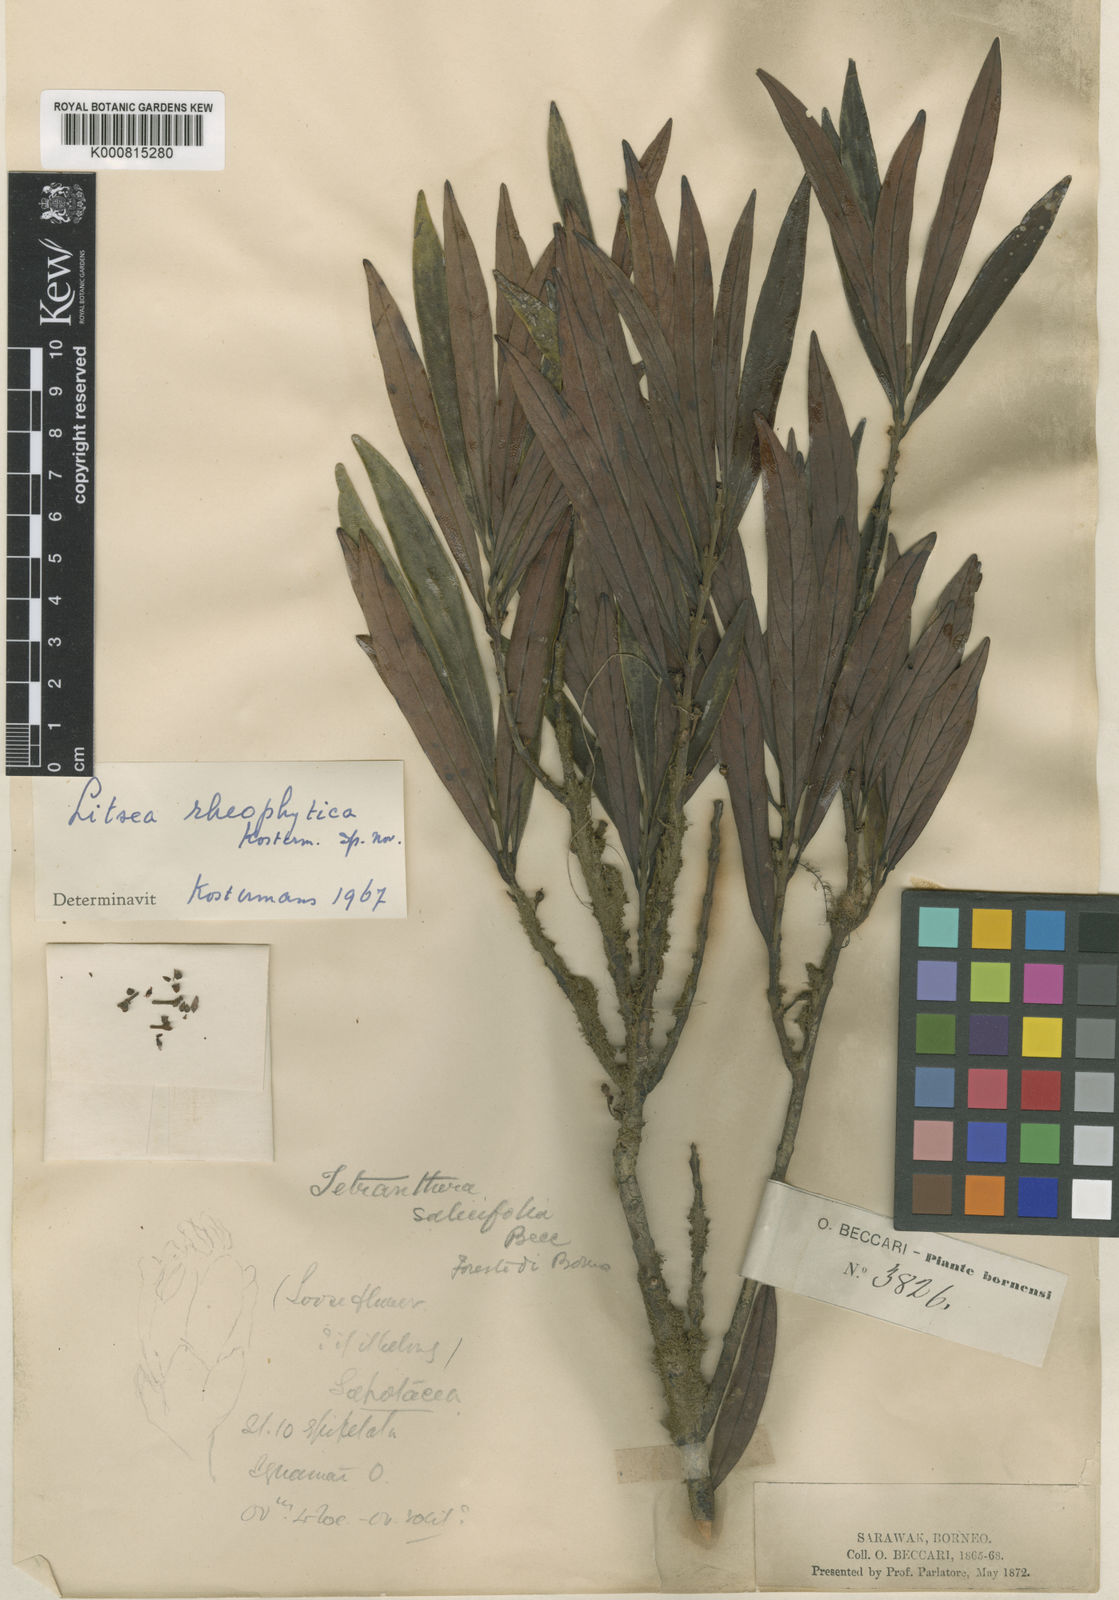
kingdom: Plantae
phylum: Tracheophyta
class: Magnoliopsida
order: Laurales
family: Lauraceae
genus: Litsea
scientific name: Litsea lancifolia
